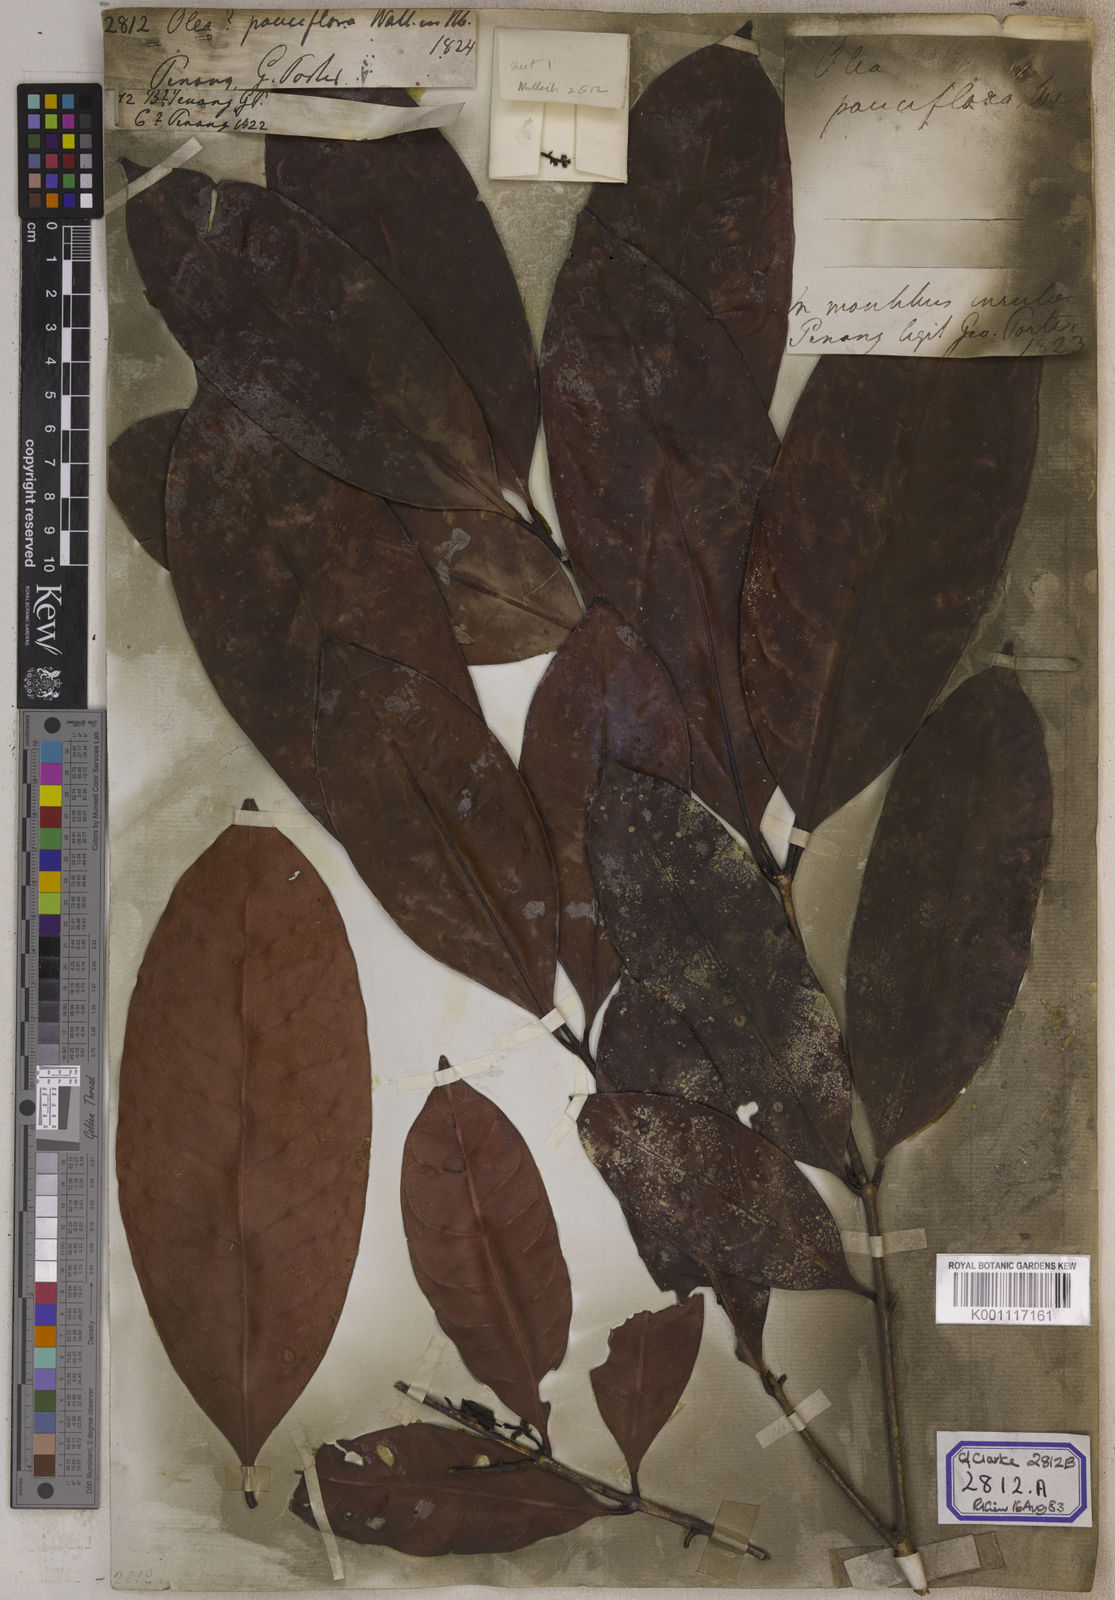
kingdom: Plantae
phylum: Tracheophyta
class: Magnoliopsida
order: Lamiales
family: Oleaceae
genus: Olea
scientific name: Olea
